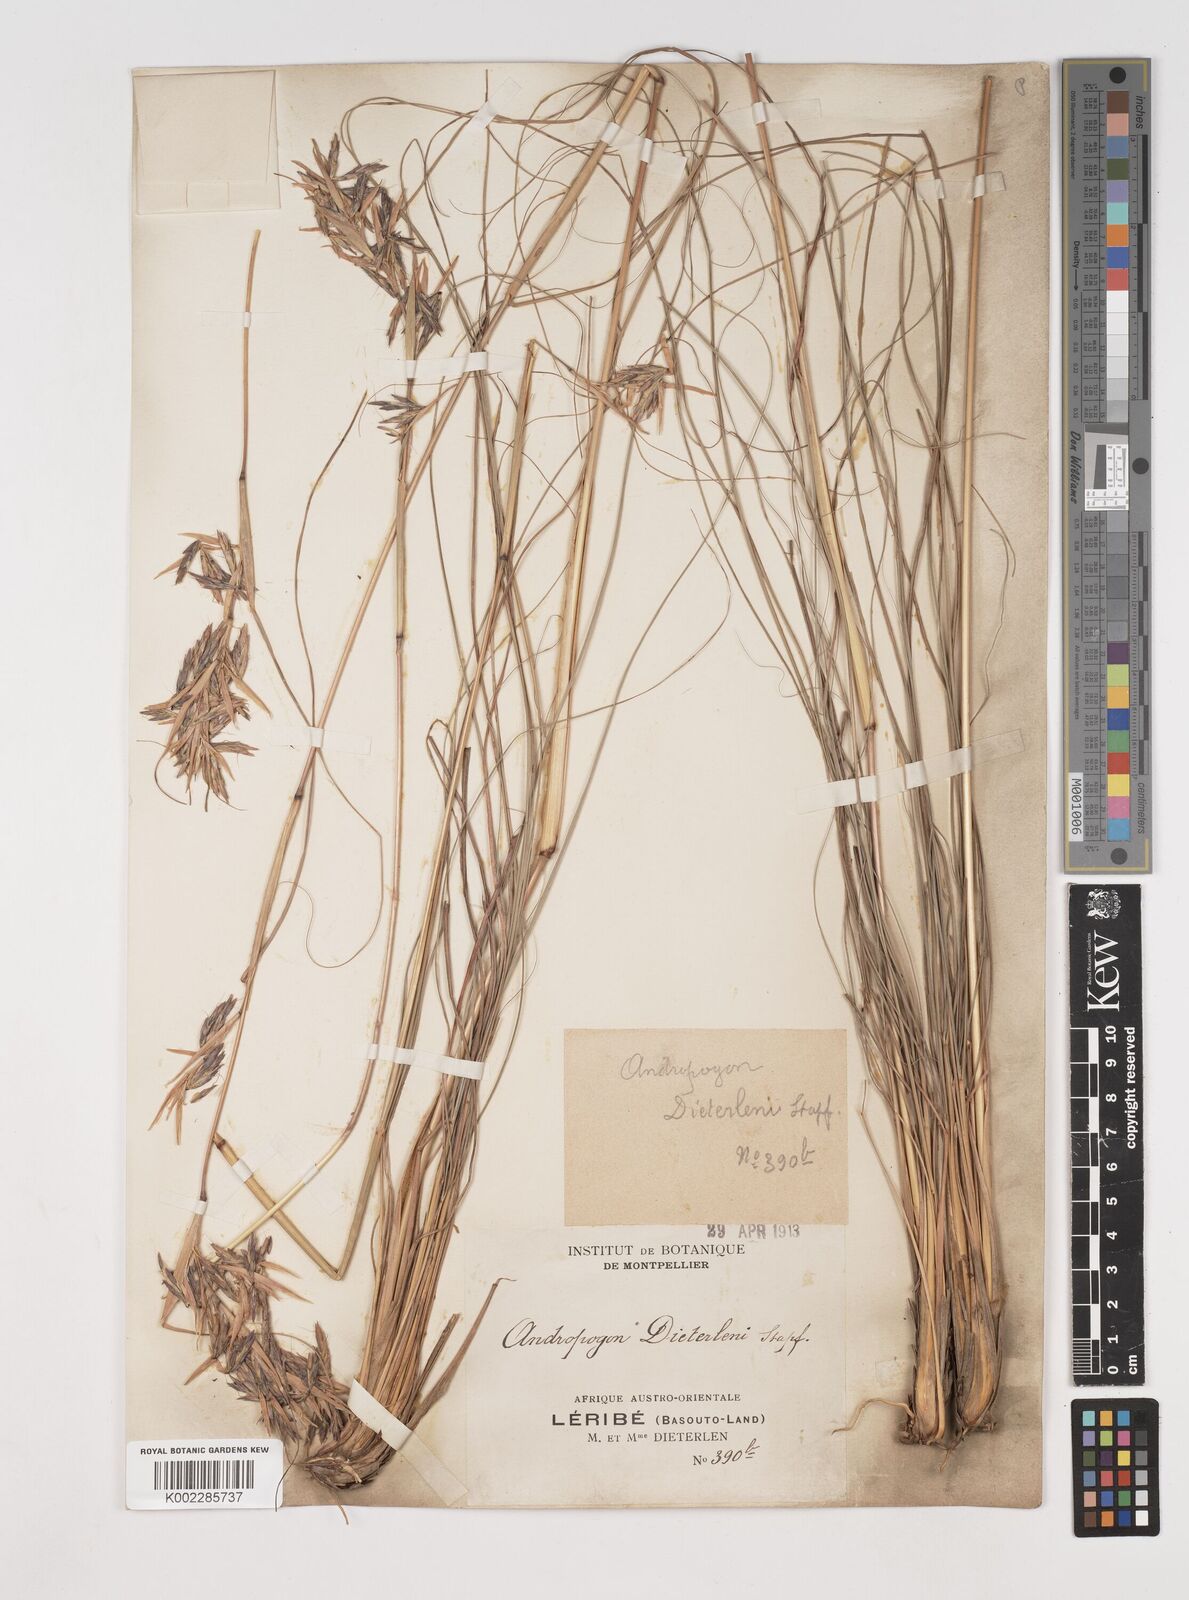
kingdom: Plantae
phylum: Tracheophyta
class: Liliopsida
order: Poales
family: Poaceae
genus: Cymbopogon
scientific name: Cymbopogon dieterlenii
